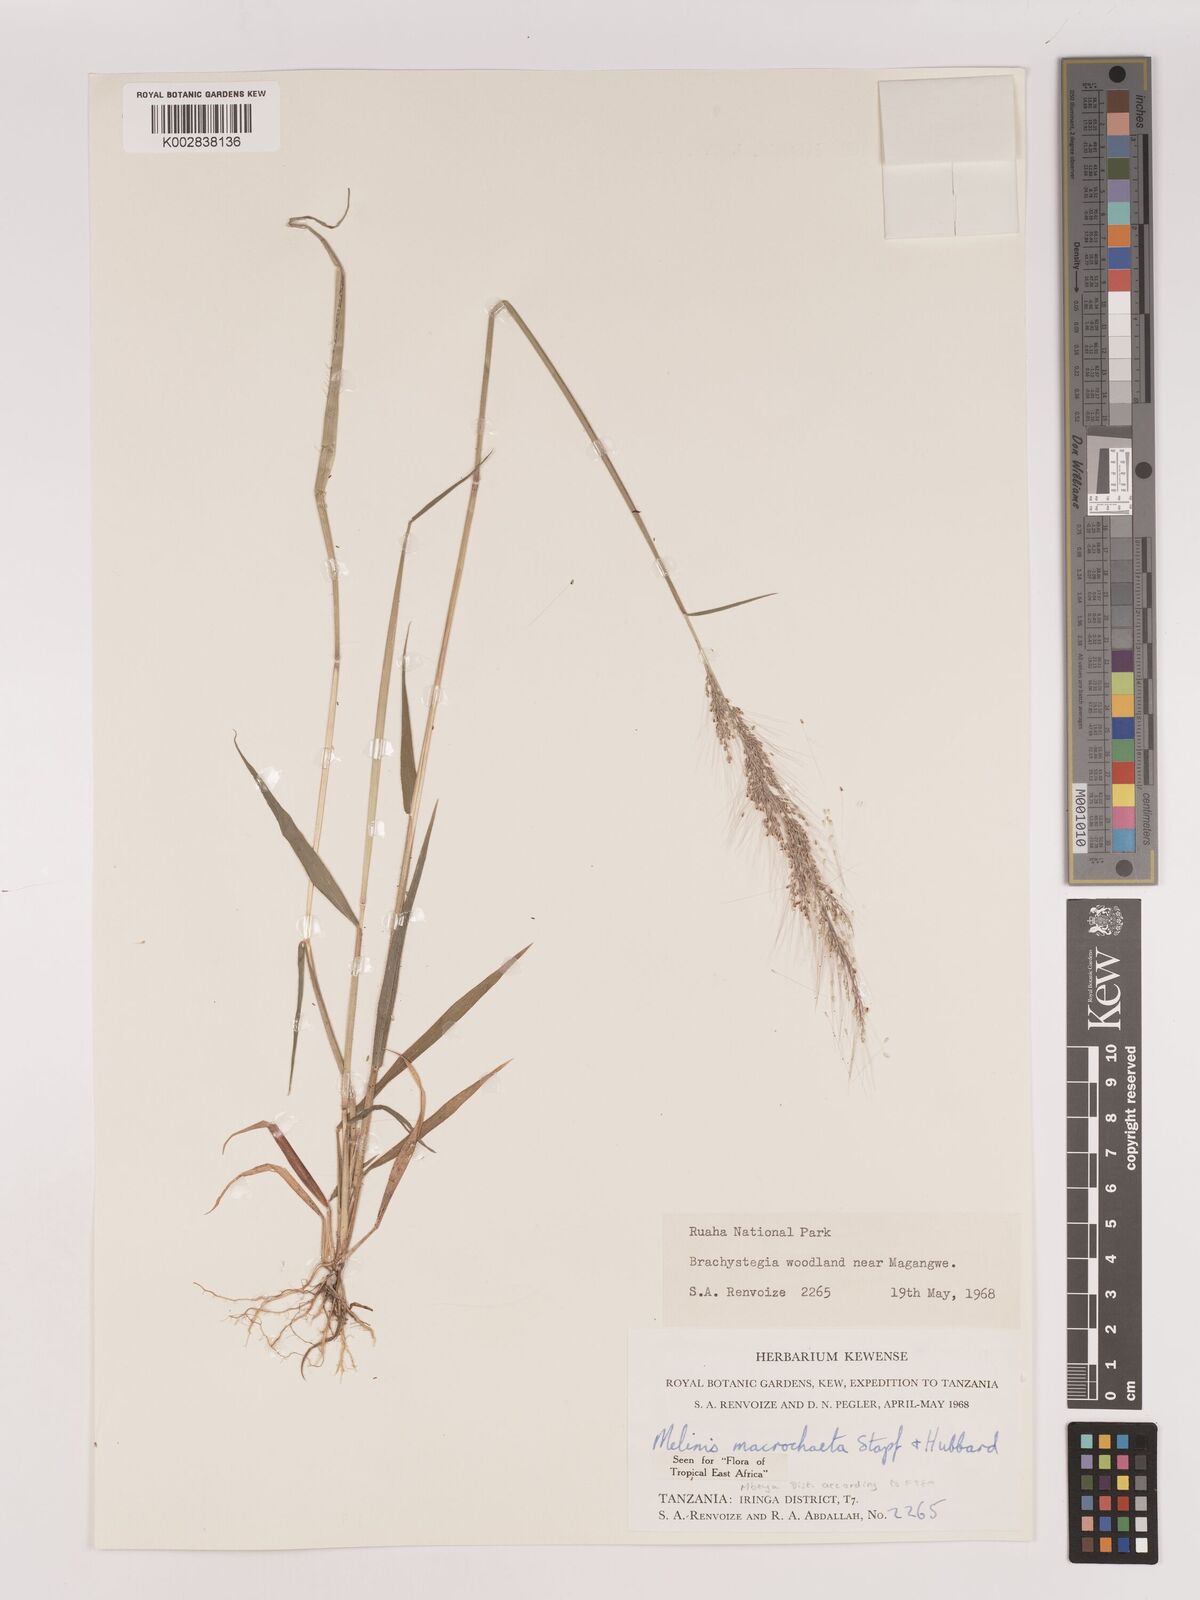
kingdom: Plantae
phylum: Tracheophyta
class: Liliopsida
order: Poales
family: Poaceae
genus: Melinis
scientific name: Melinis macrochaeta
